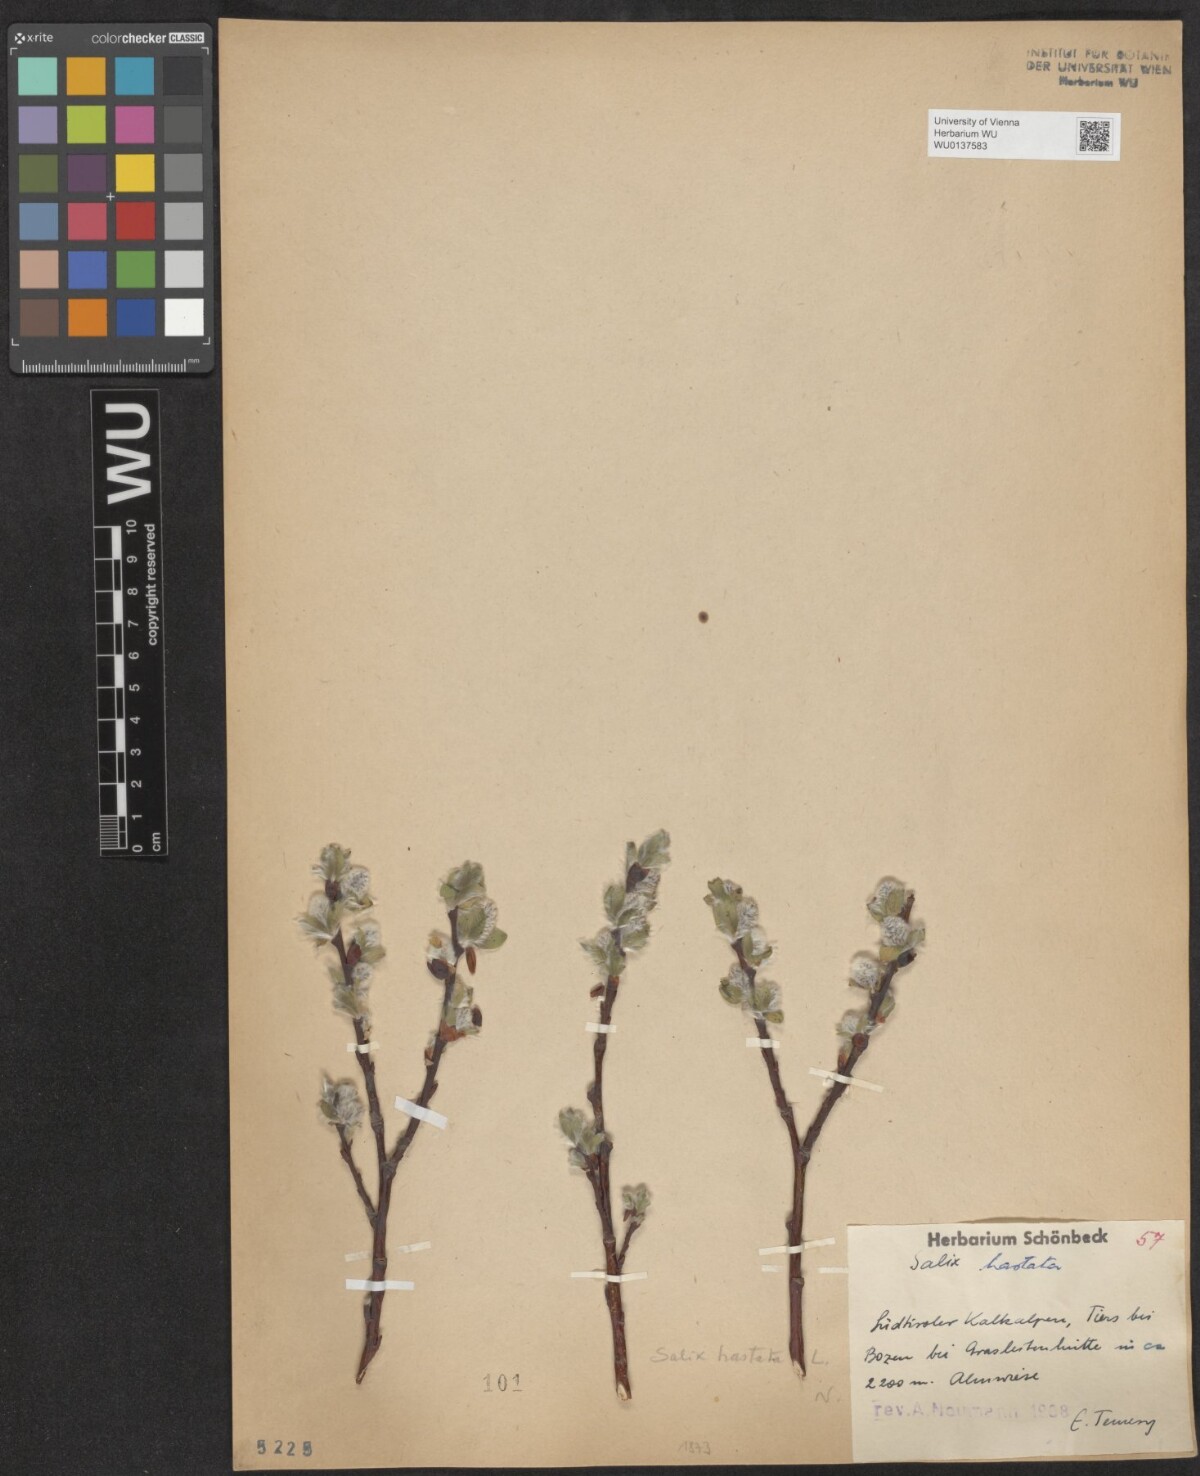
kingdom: Plantae
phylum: Tracheophyta
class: Magnoliopsida
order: Malpighiales
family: Salicaceae
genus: Salix
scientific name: Salix hastata
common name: Halberd willow
